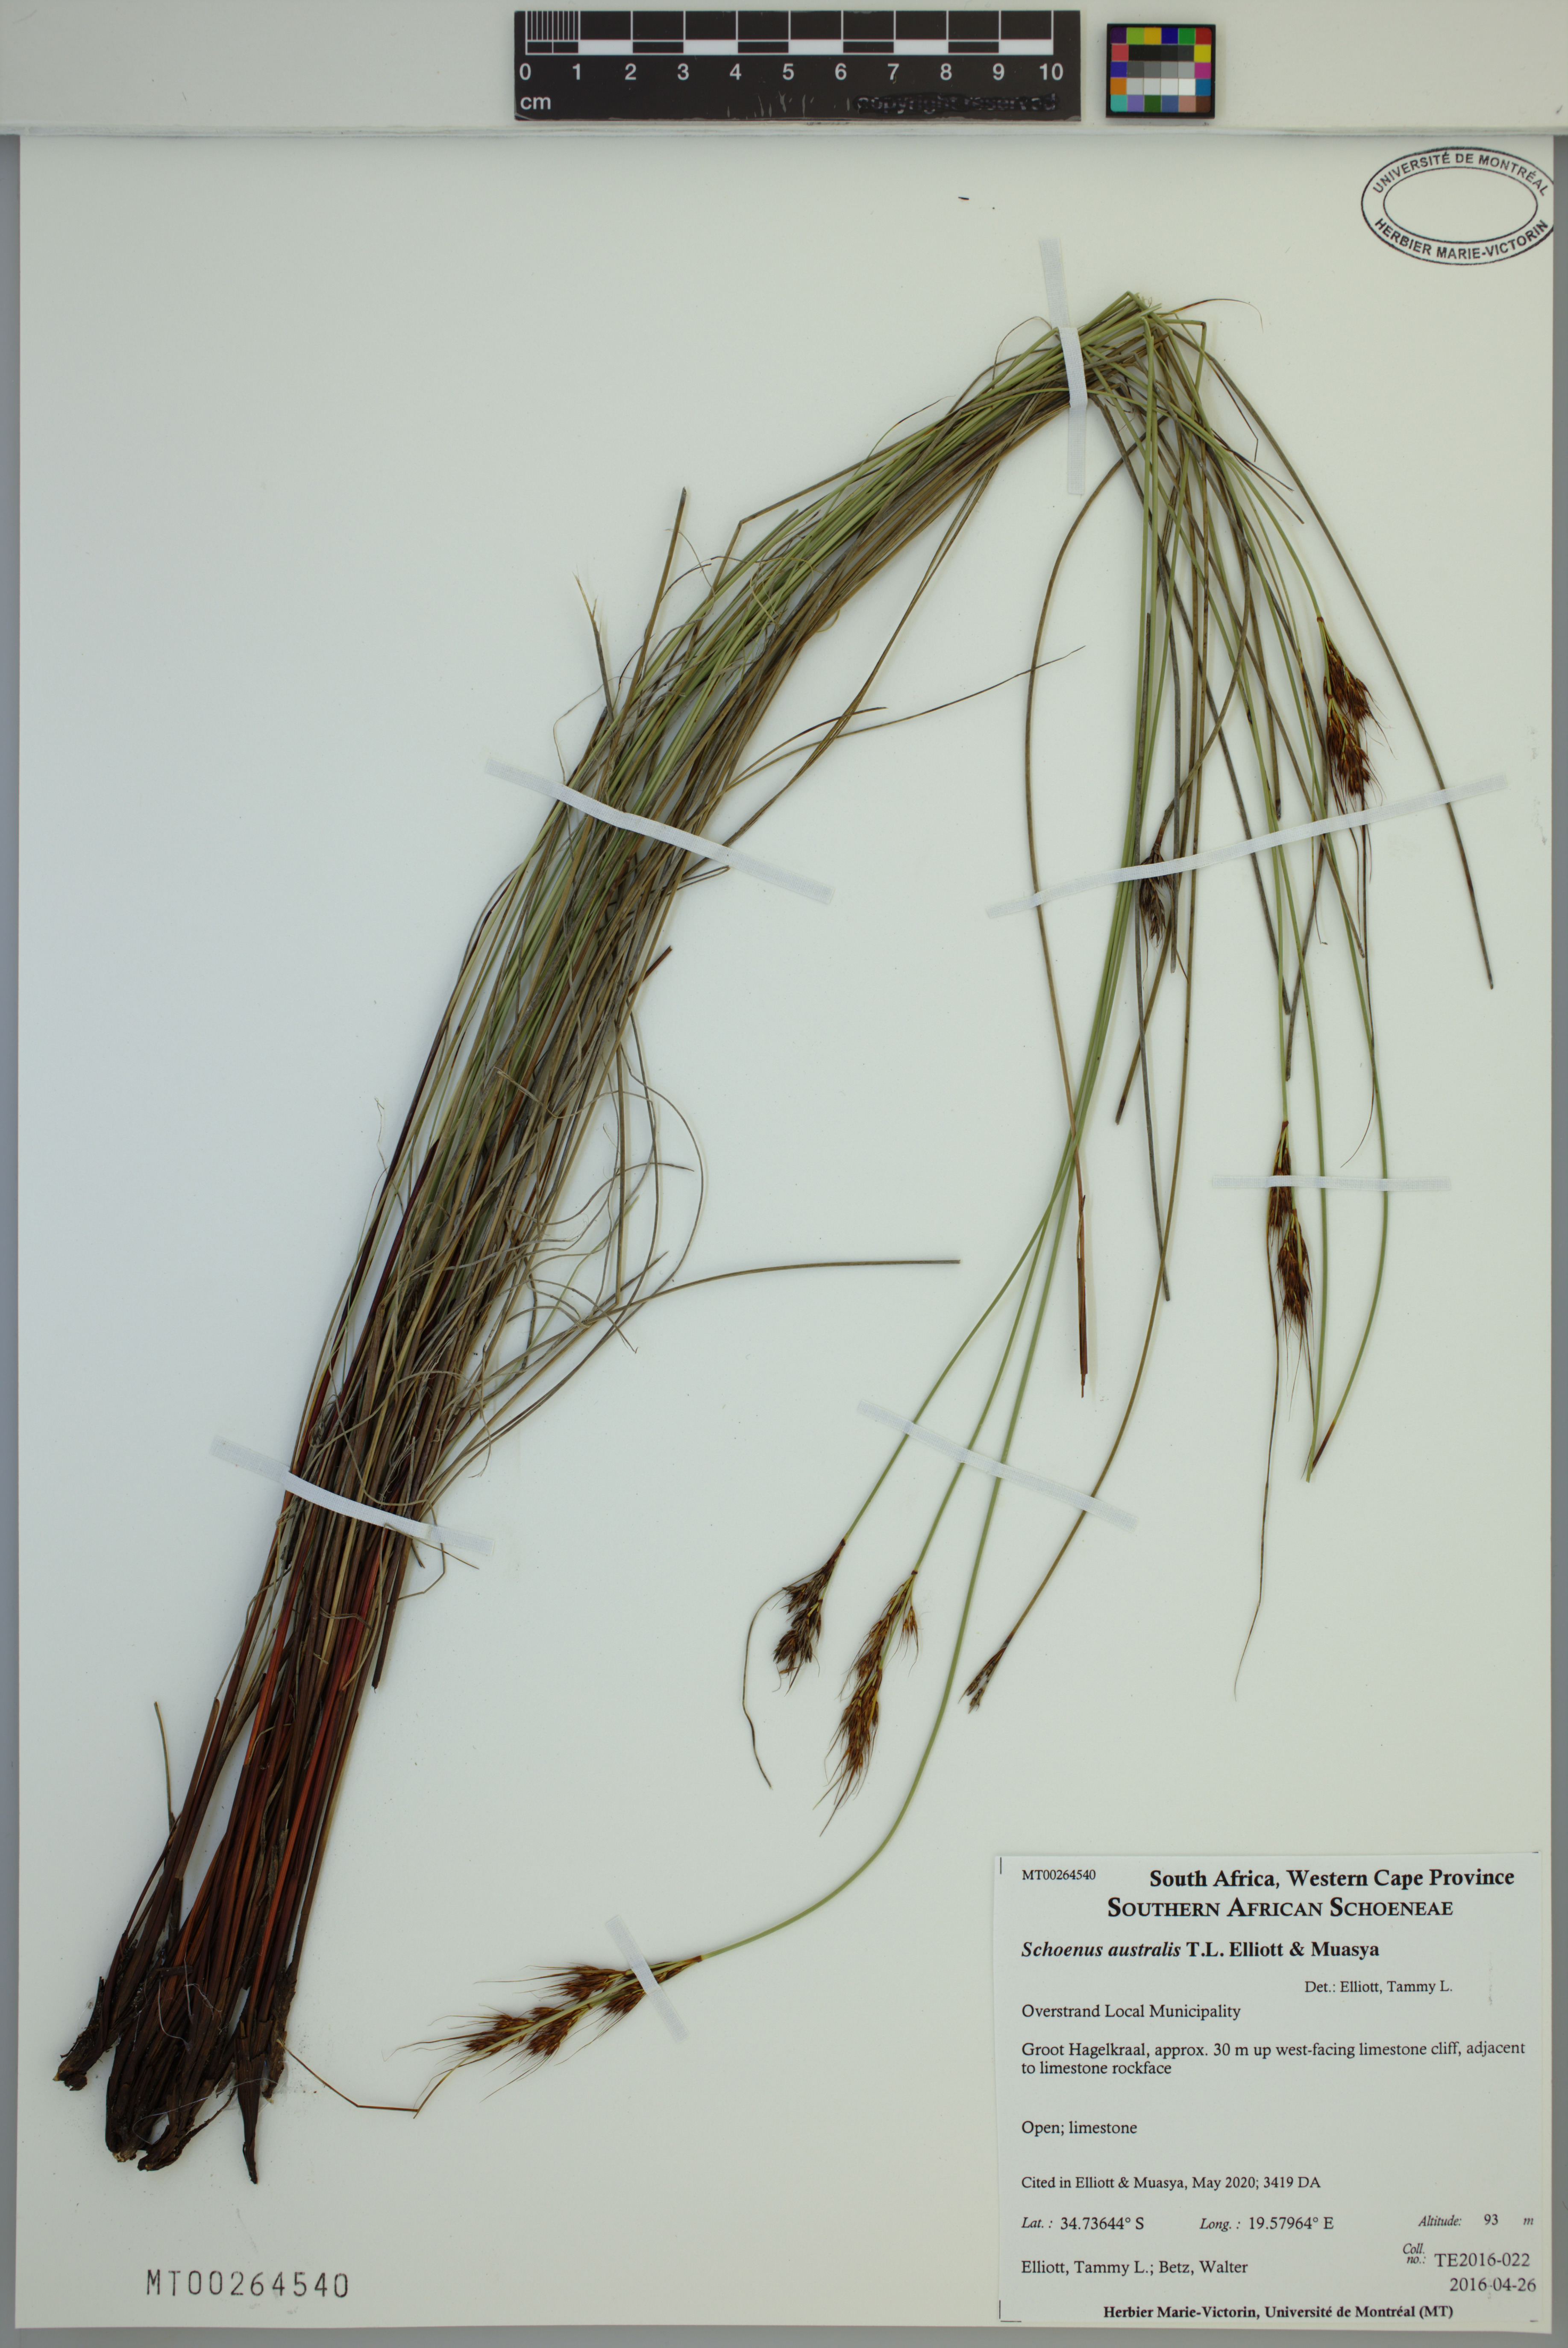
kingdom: Plantae
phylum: Tracheophyta
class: Liliopsida
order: Poales
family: Cyperaceae
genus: Schoenus
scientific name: Schoenus australis
